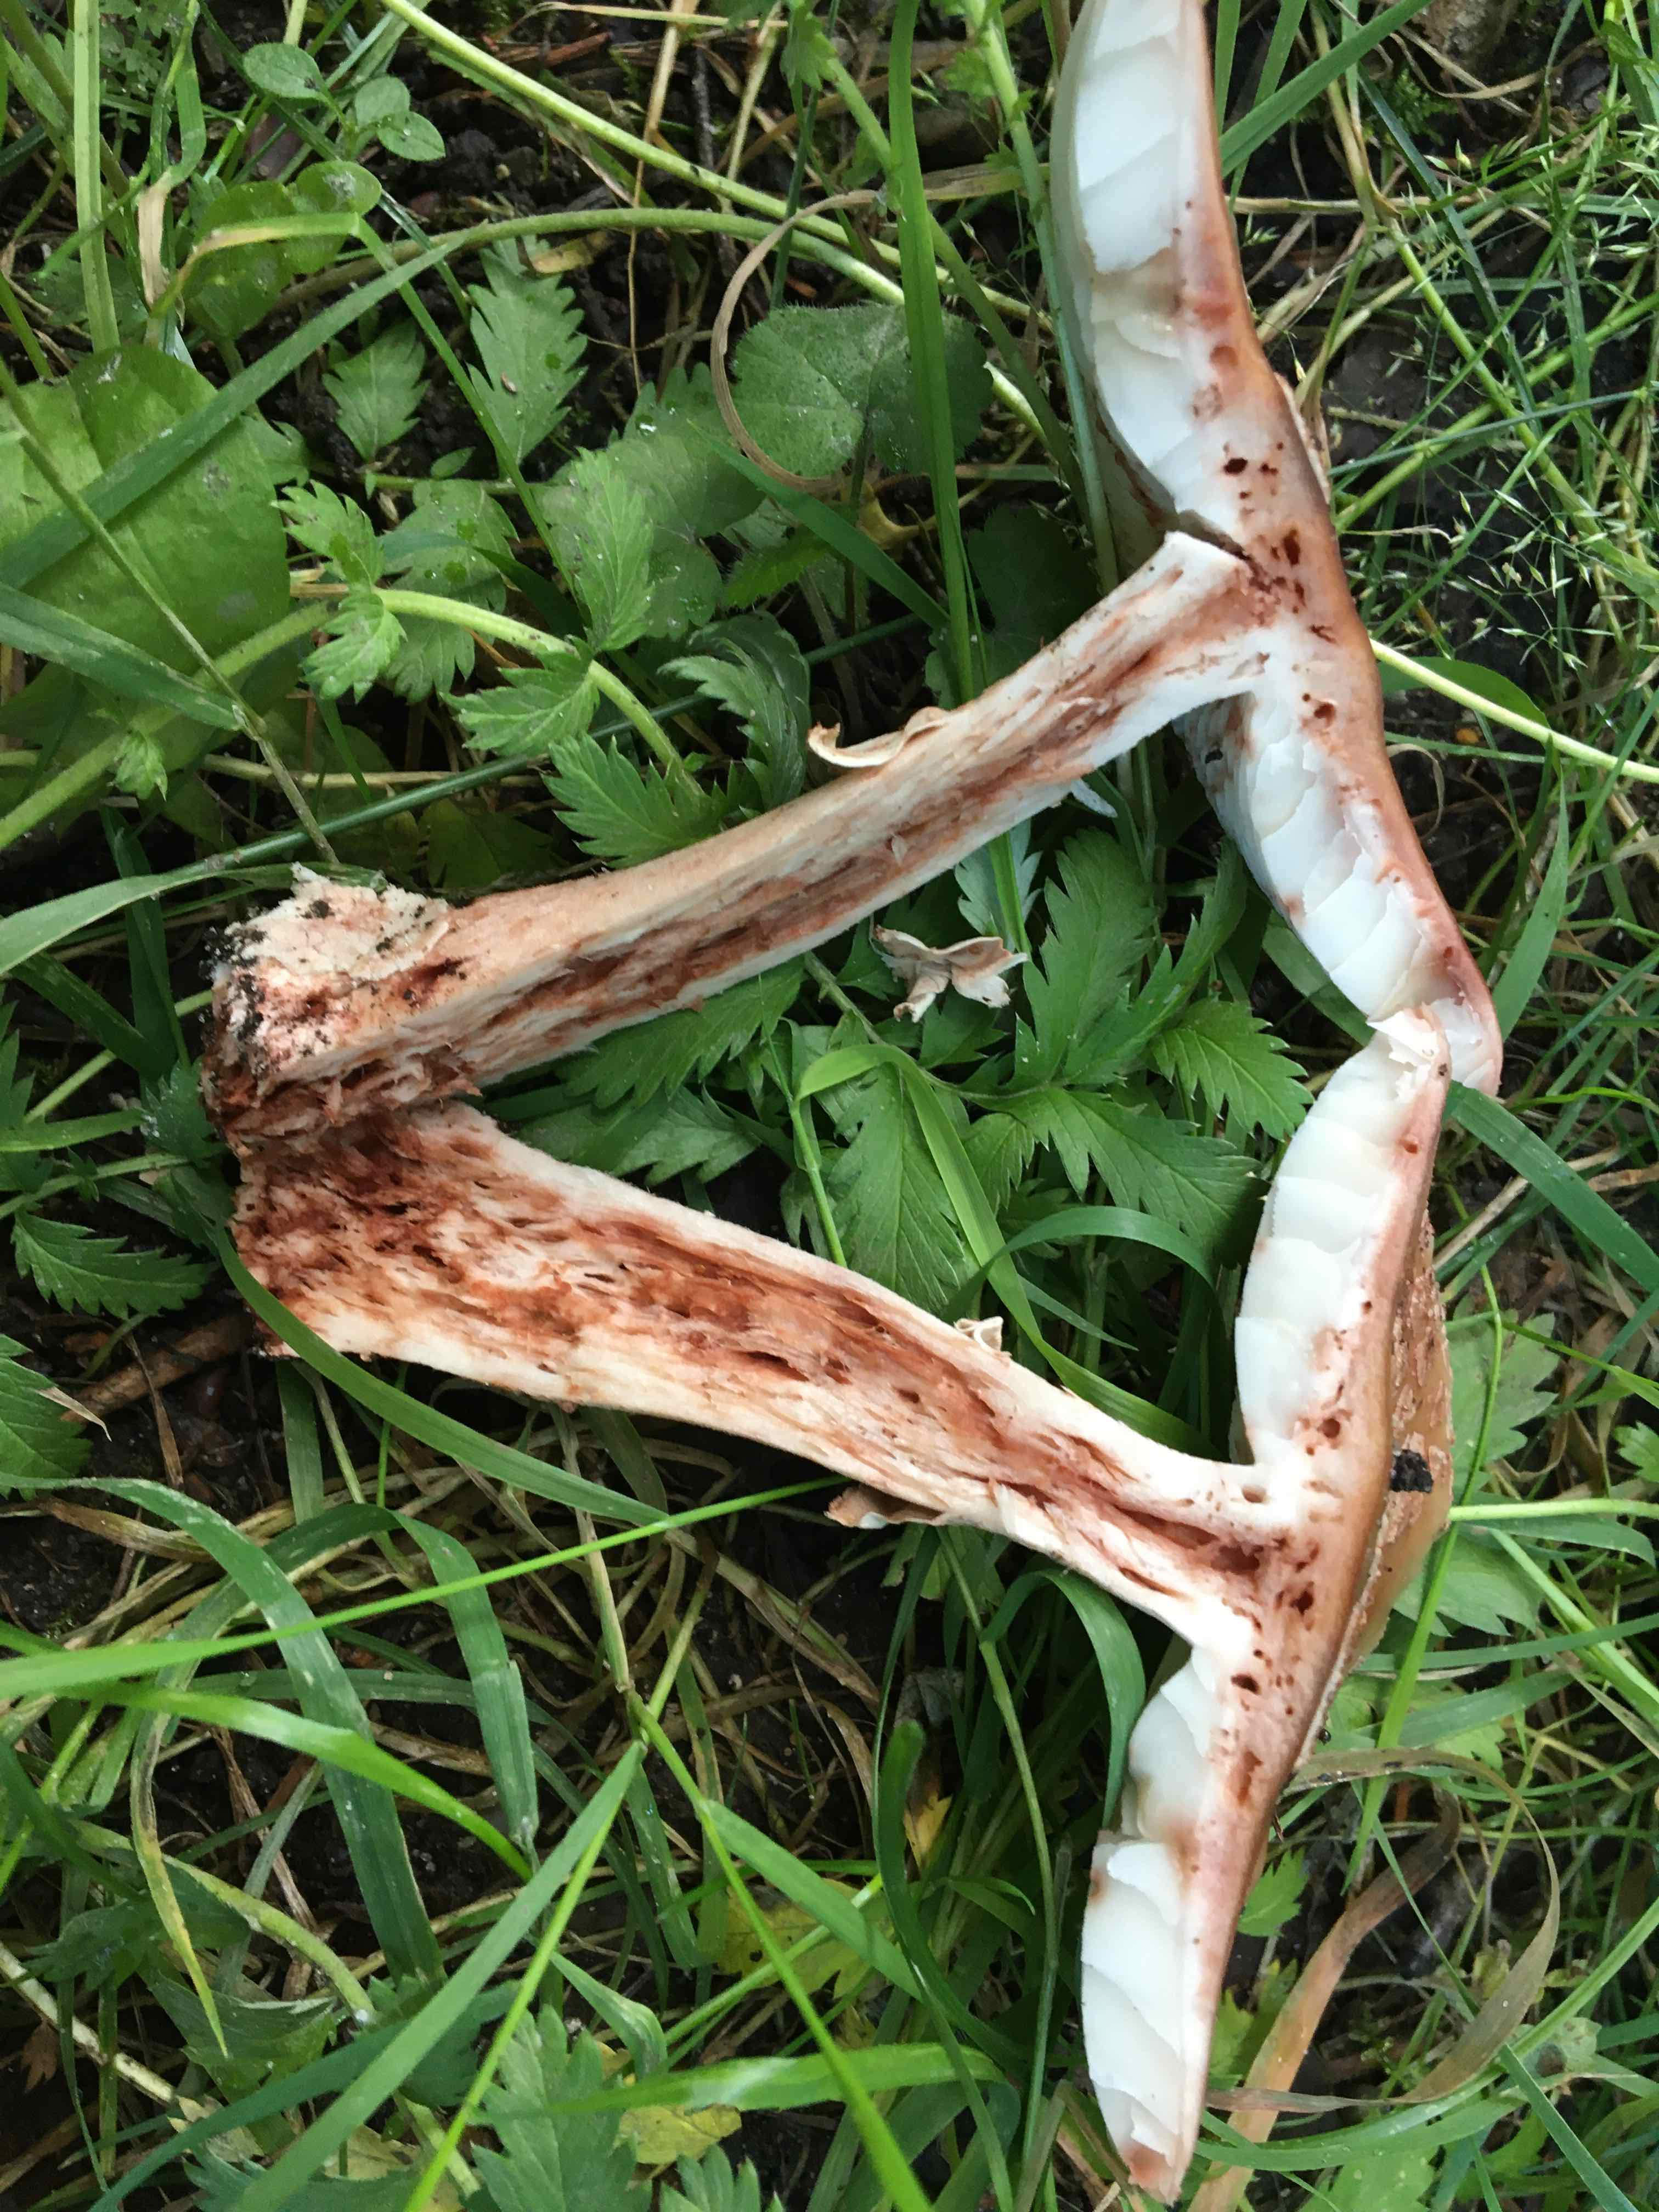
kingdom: Fungi
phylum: Basidiomycota
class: Agaricomycetes
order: Agaricales
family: Amanitaceae
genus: Amanita
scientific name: Amanita rubescens
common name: rødmende fluesvamp
